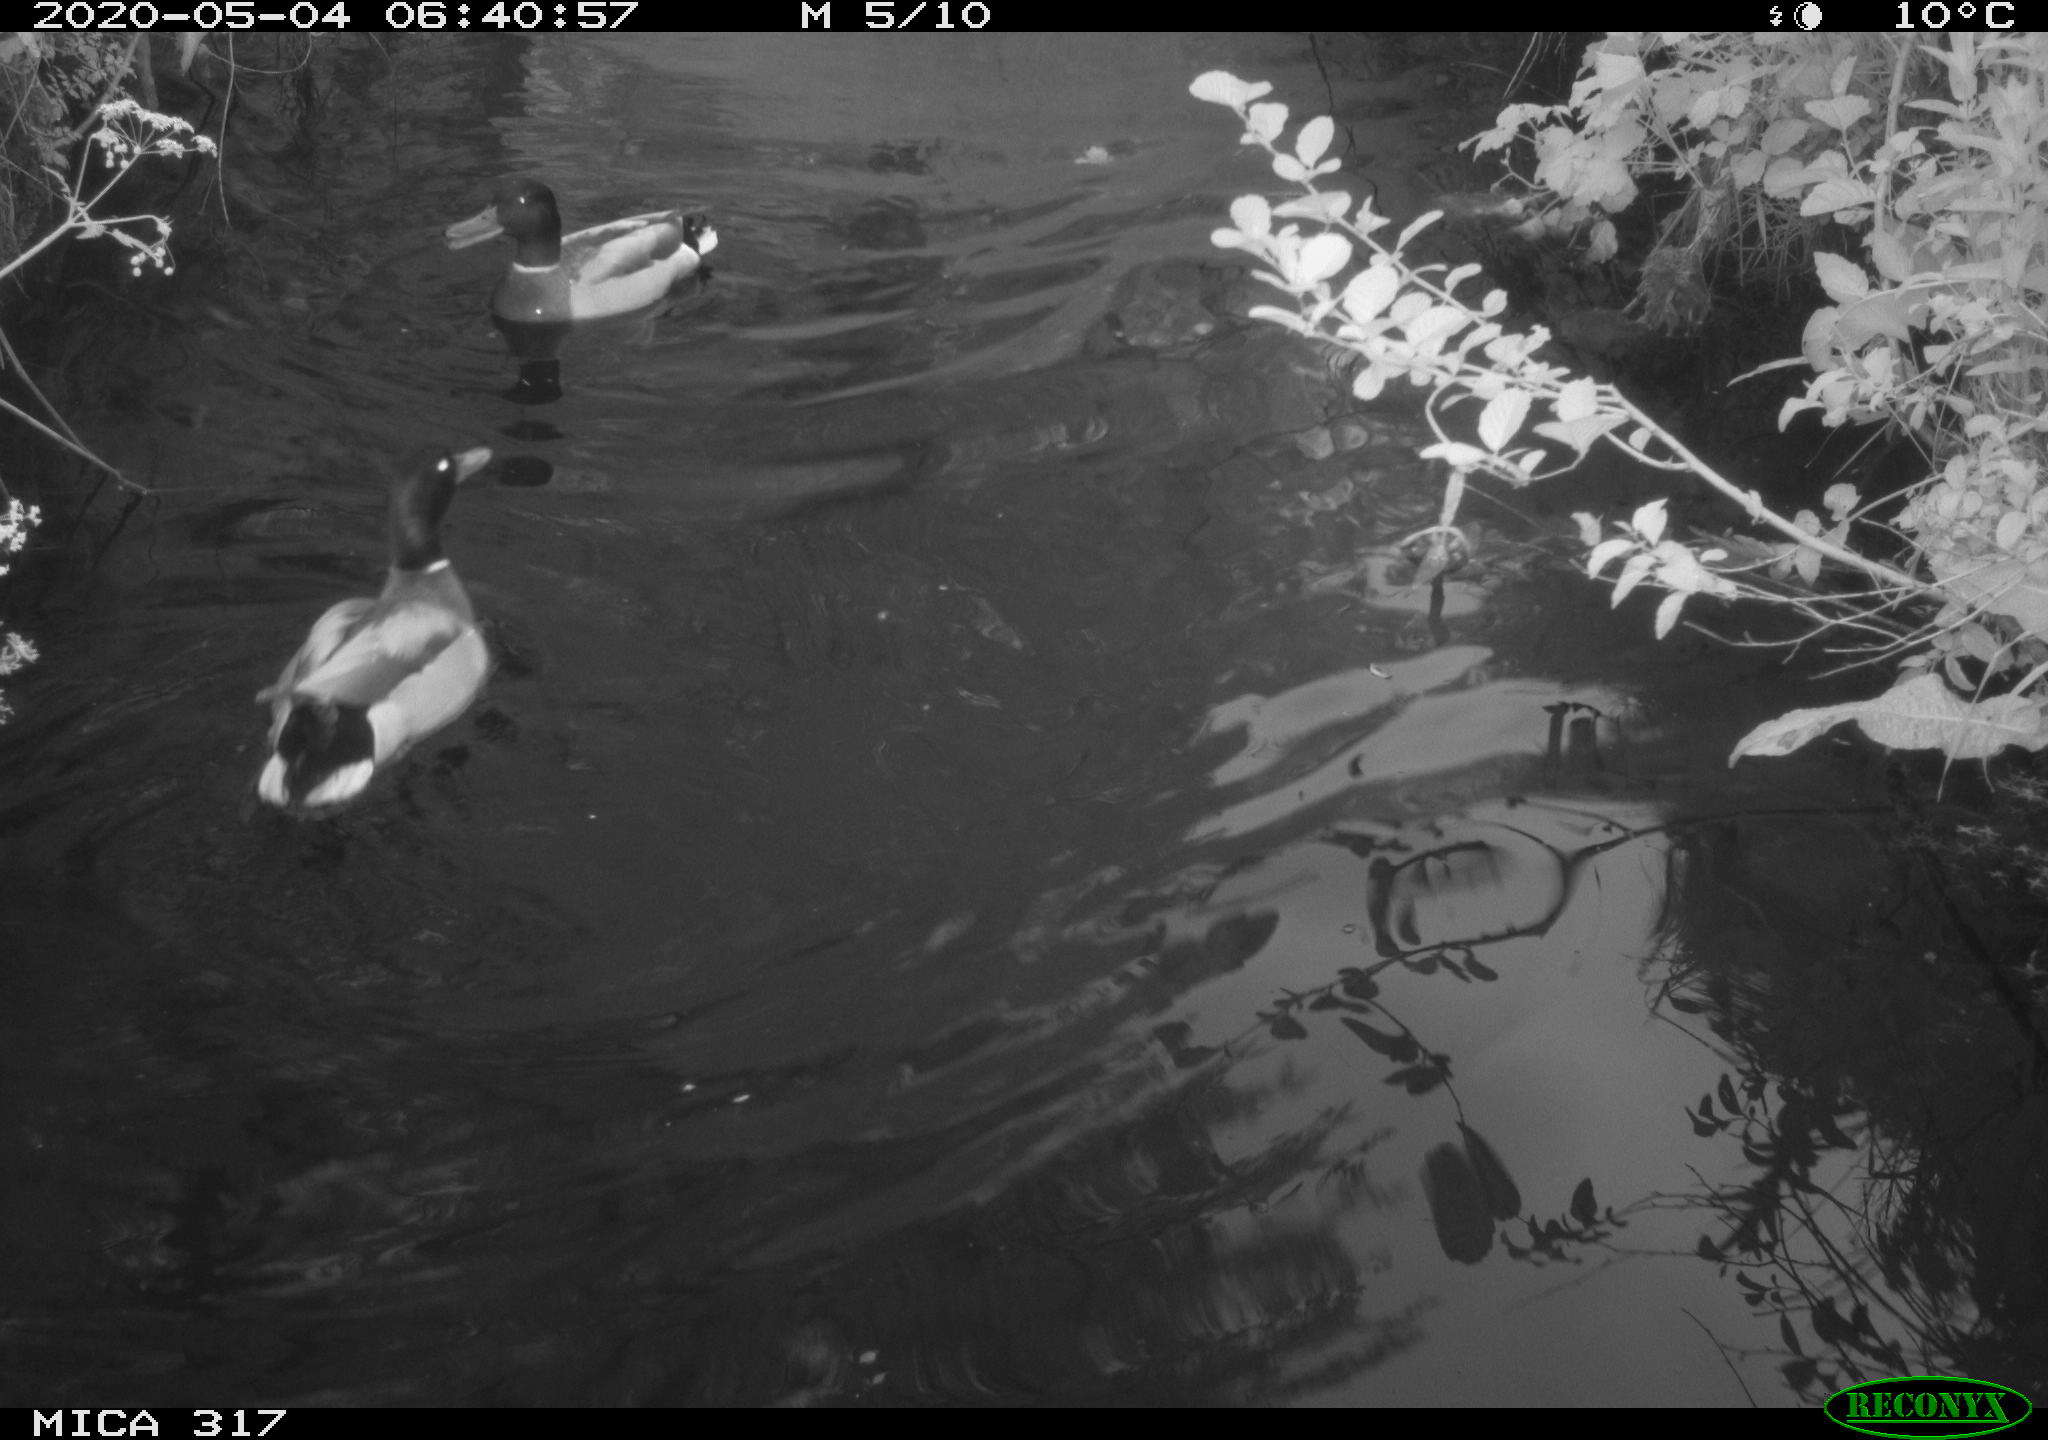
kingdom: Animalia
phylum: Chordata
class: Aves
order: Anseriformes
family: Anatidae
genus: Anas
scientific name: Anas platyrhynchos
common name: Mallard
